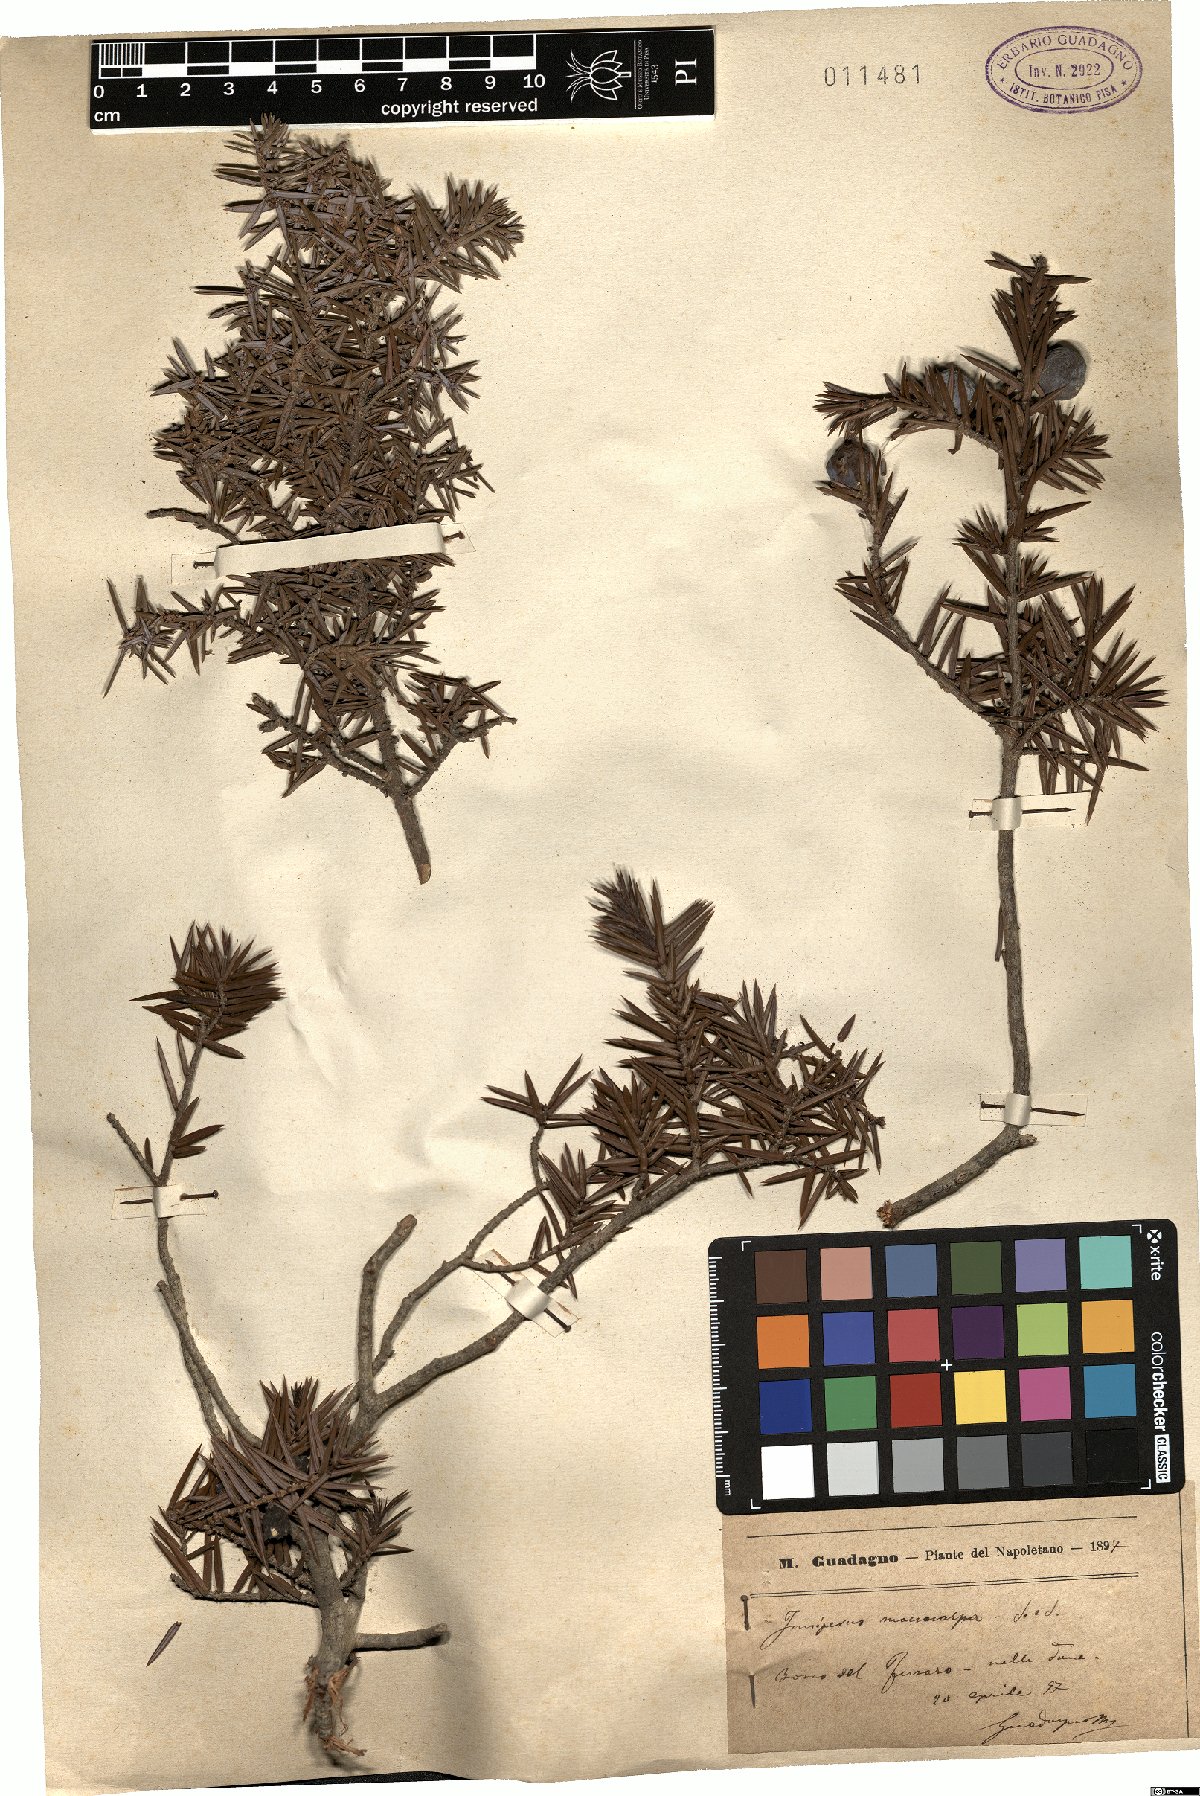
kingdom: Plantae
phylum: Tracheophyta
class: Pinopsida
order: Pinales
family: Cupressaceae
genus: Juniperus
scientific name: Juniperus oxycedrus
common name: Prickly juniper
